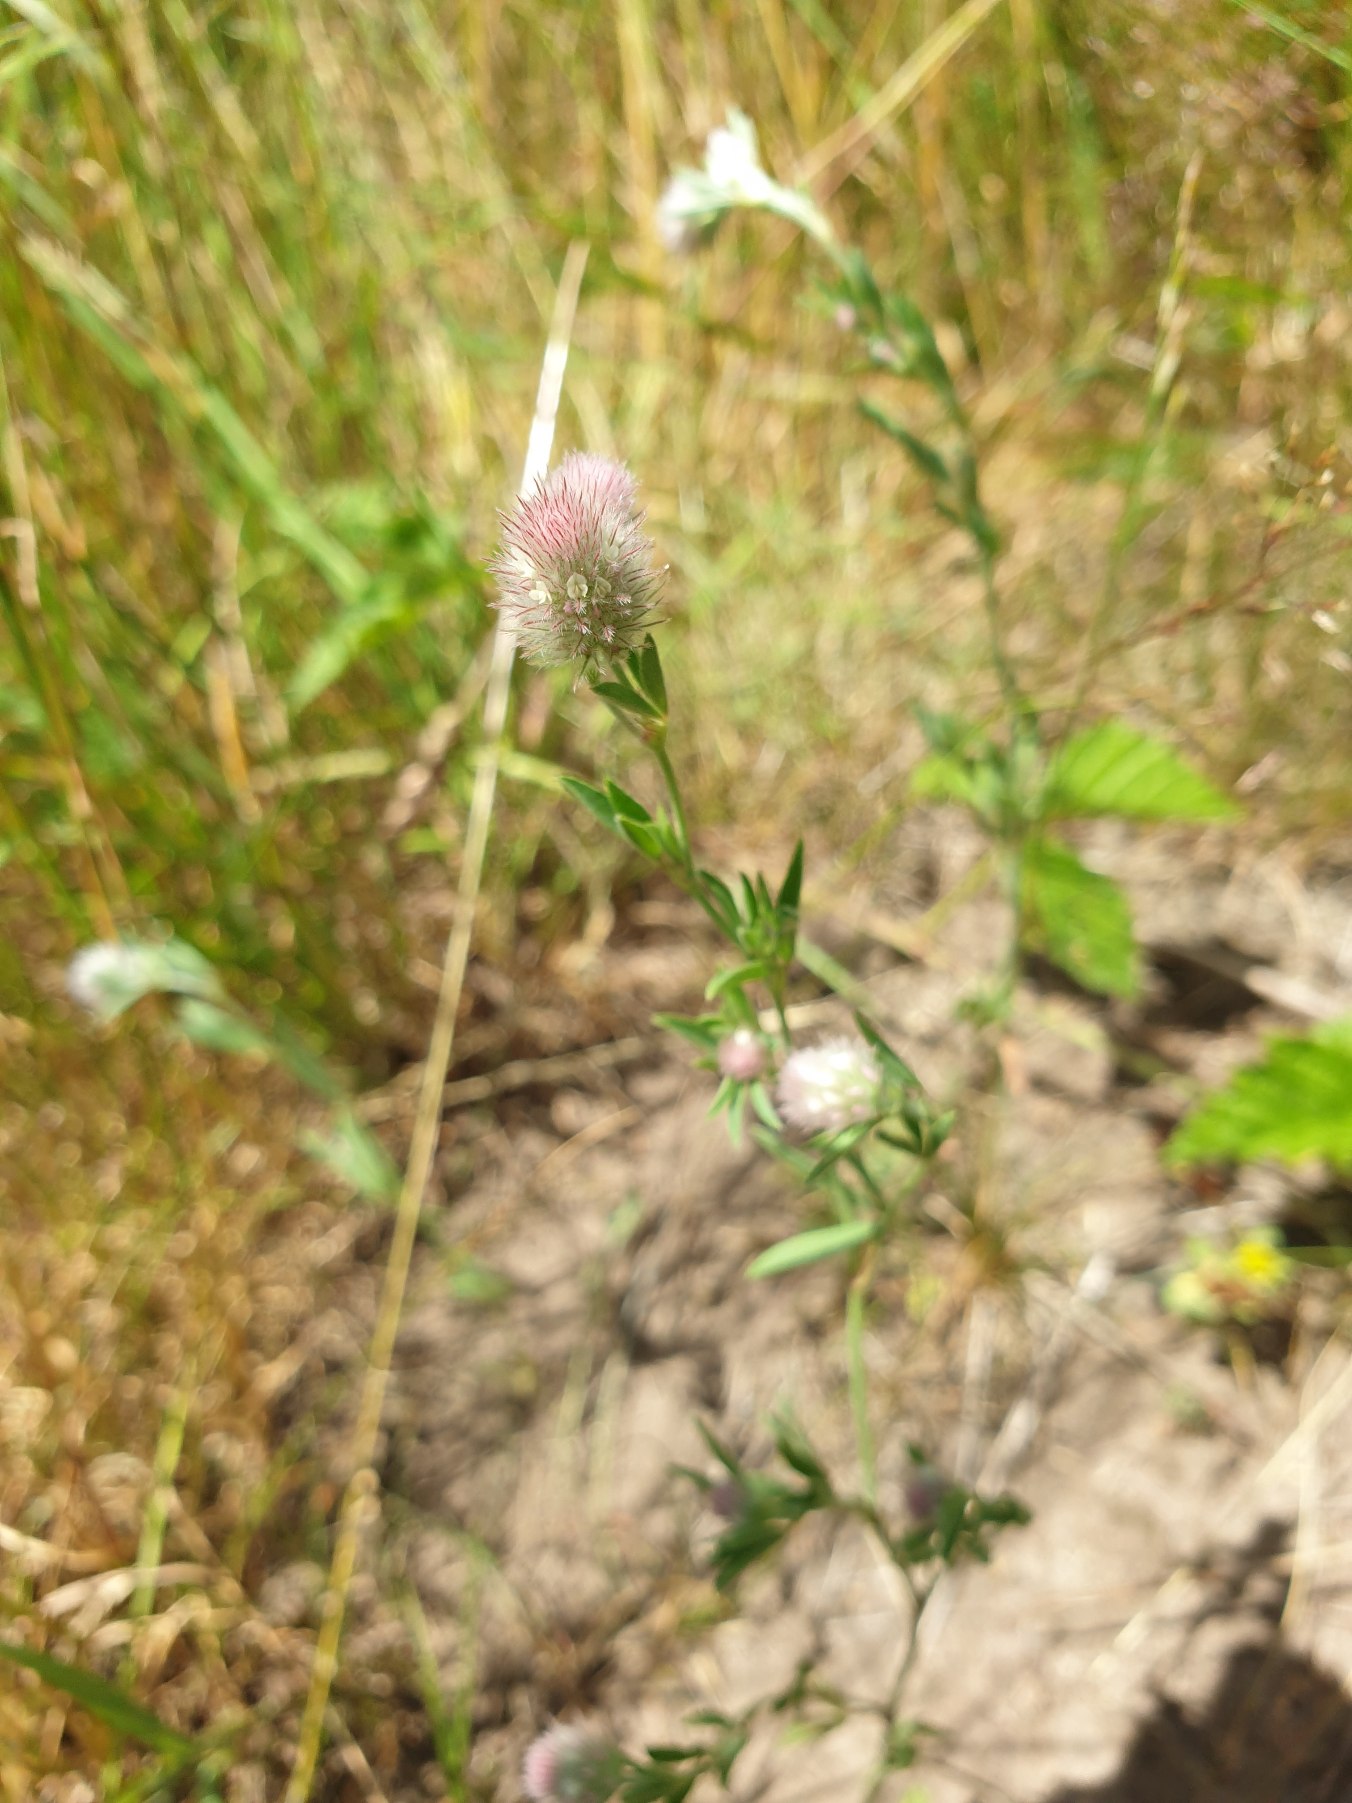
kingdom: Plantae
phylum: Tracheophyta
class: Magnoliopsida
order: Fabales
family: Fabaceae
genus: Trifolium
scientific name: Trifolium arvense
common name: Hare-kløver
